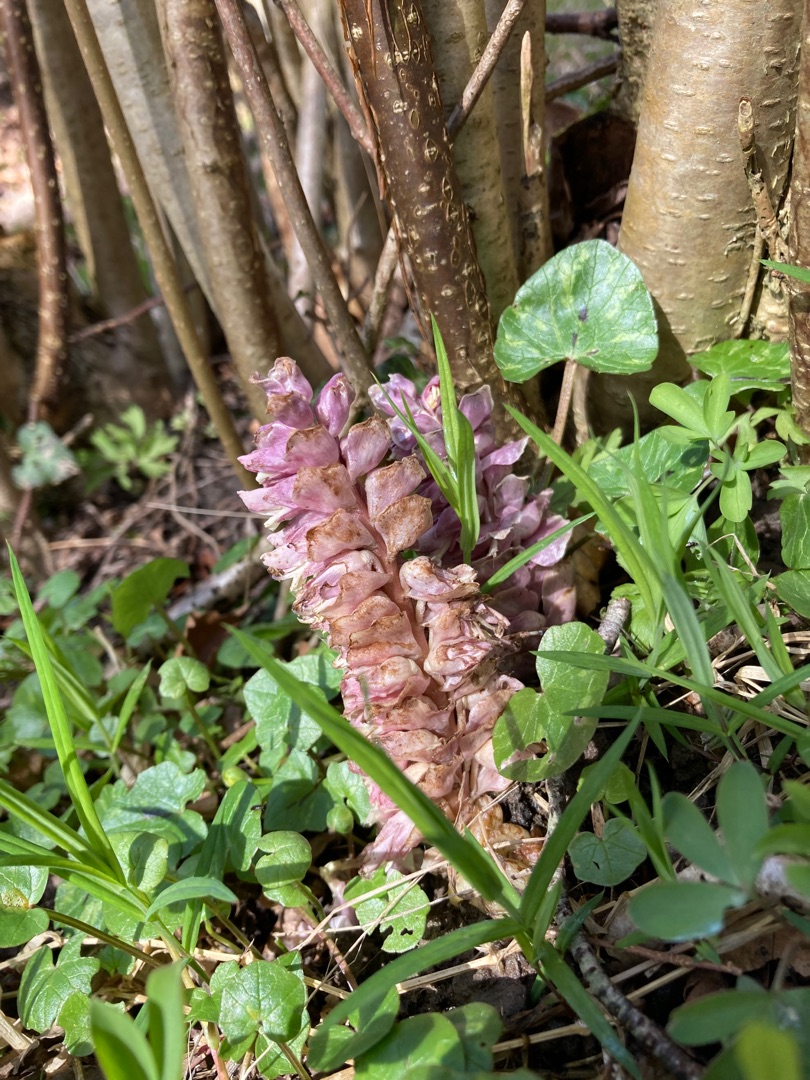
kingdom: Plantae
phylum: Tracheophyta
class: Magnoliopsida
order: Lamiales
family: Orobanchaceae
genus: Lathraea
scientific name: Lathraea squamaria
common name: Skælrod
